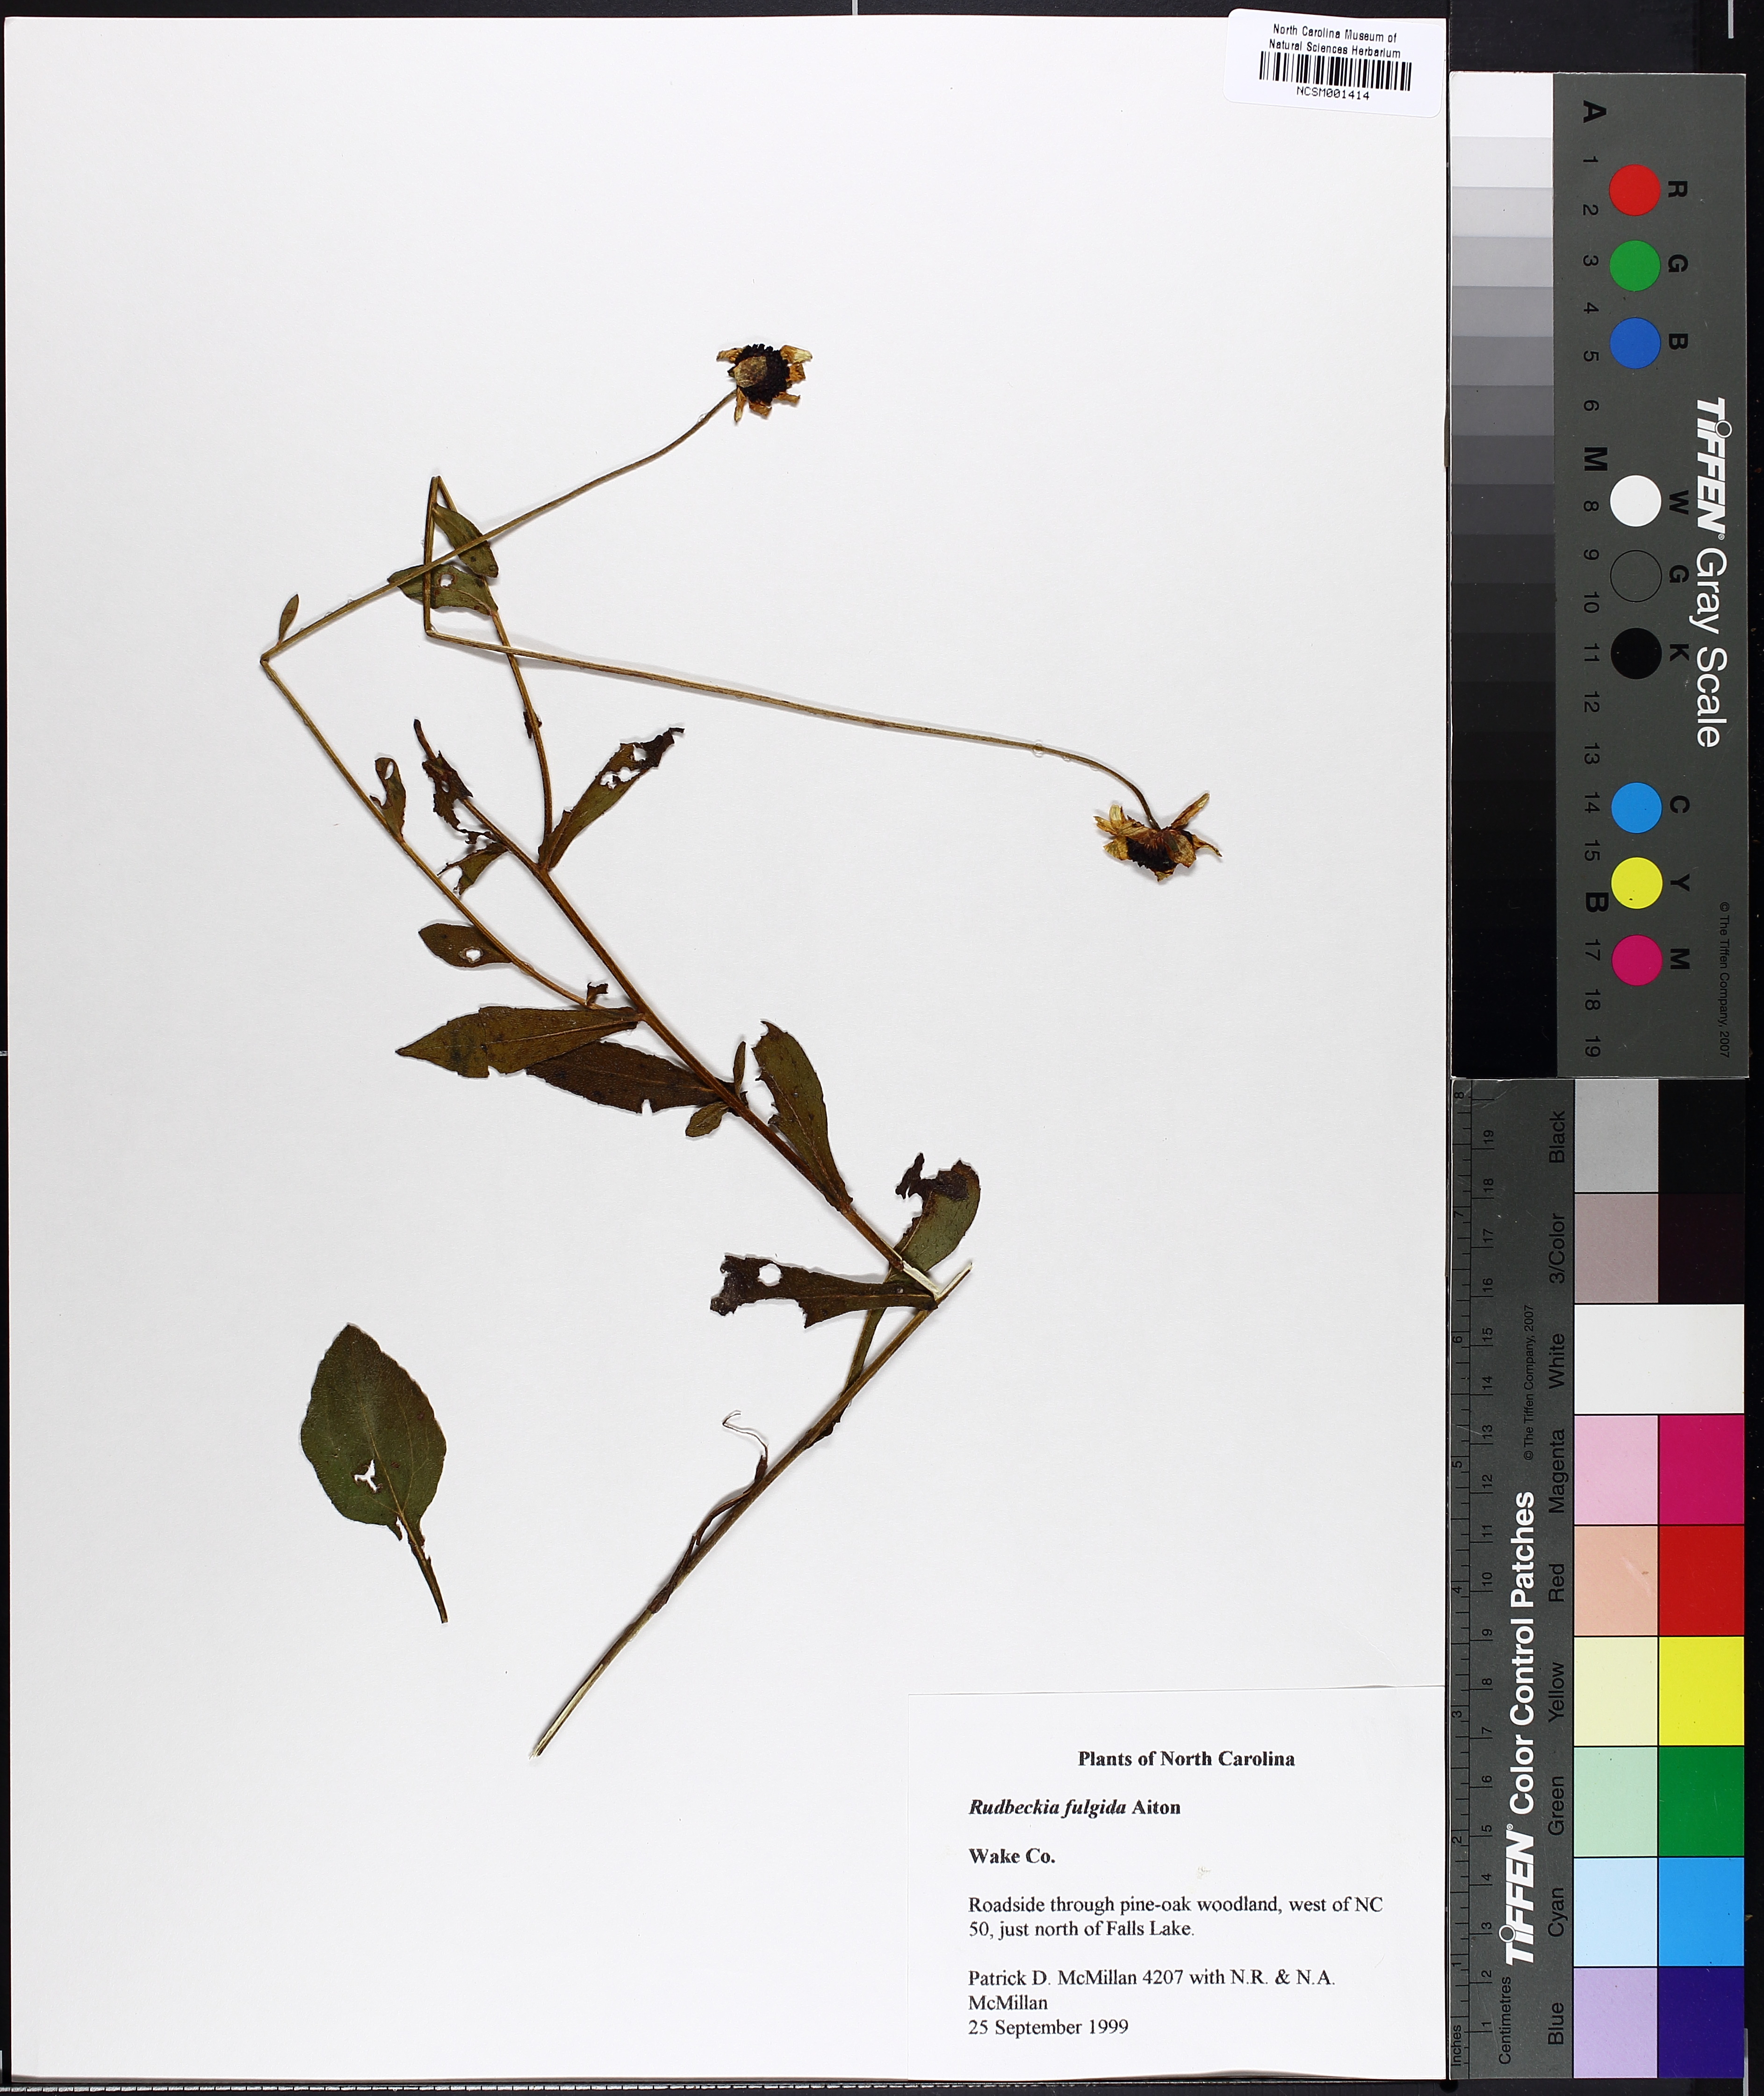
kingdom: Plantae
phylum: Tracheophyta
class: Magnoliopsida
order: Asterales
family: Asteraceae
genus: Rudbeckia
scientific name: Rudbeckia fulgida
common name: Perennial coneflower
